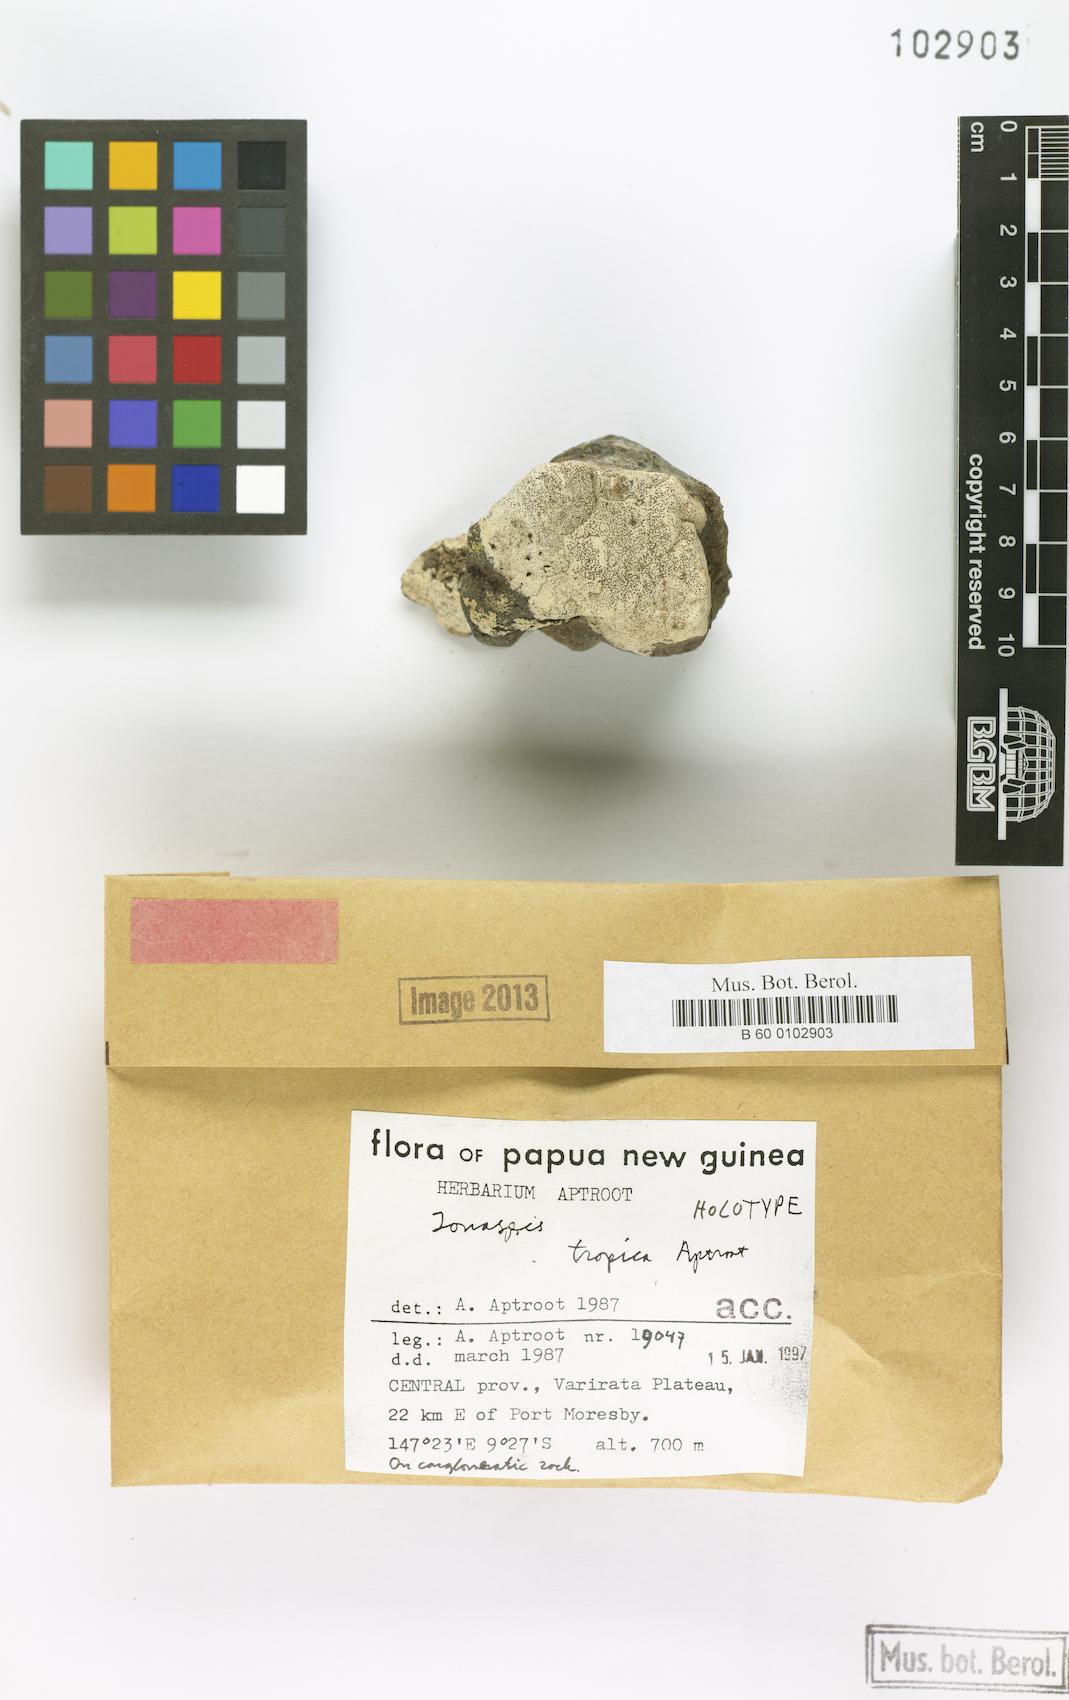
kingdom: Fungi
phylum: Ascomycota
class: Lecanoromycetes
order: Hymeneliales
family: Hymeneliaceae
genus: Ionaspis
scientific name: Ionaspis aptrootii
